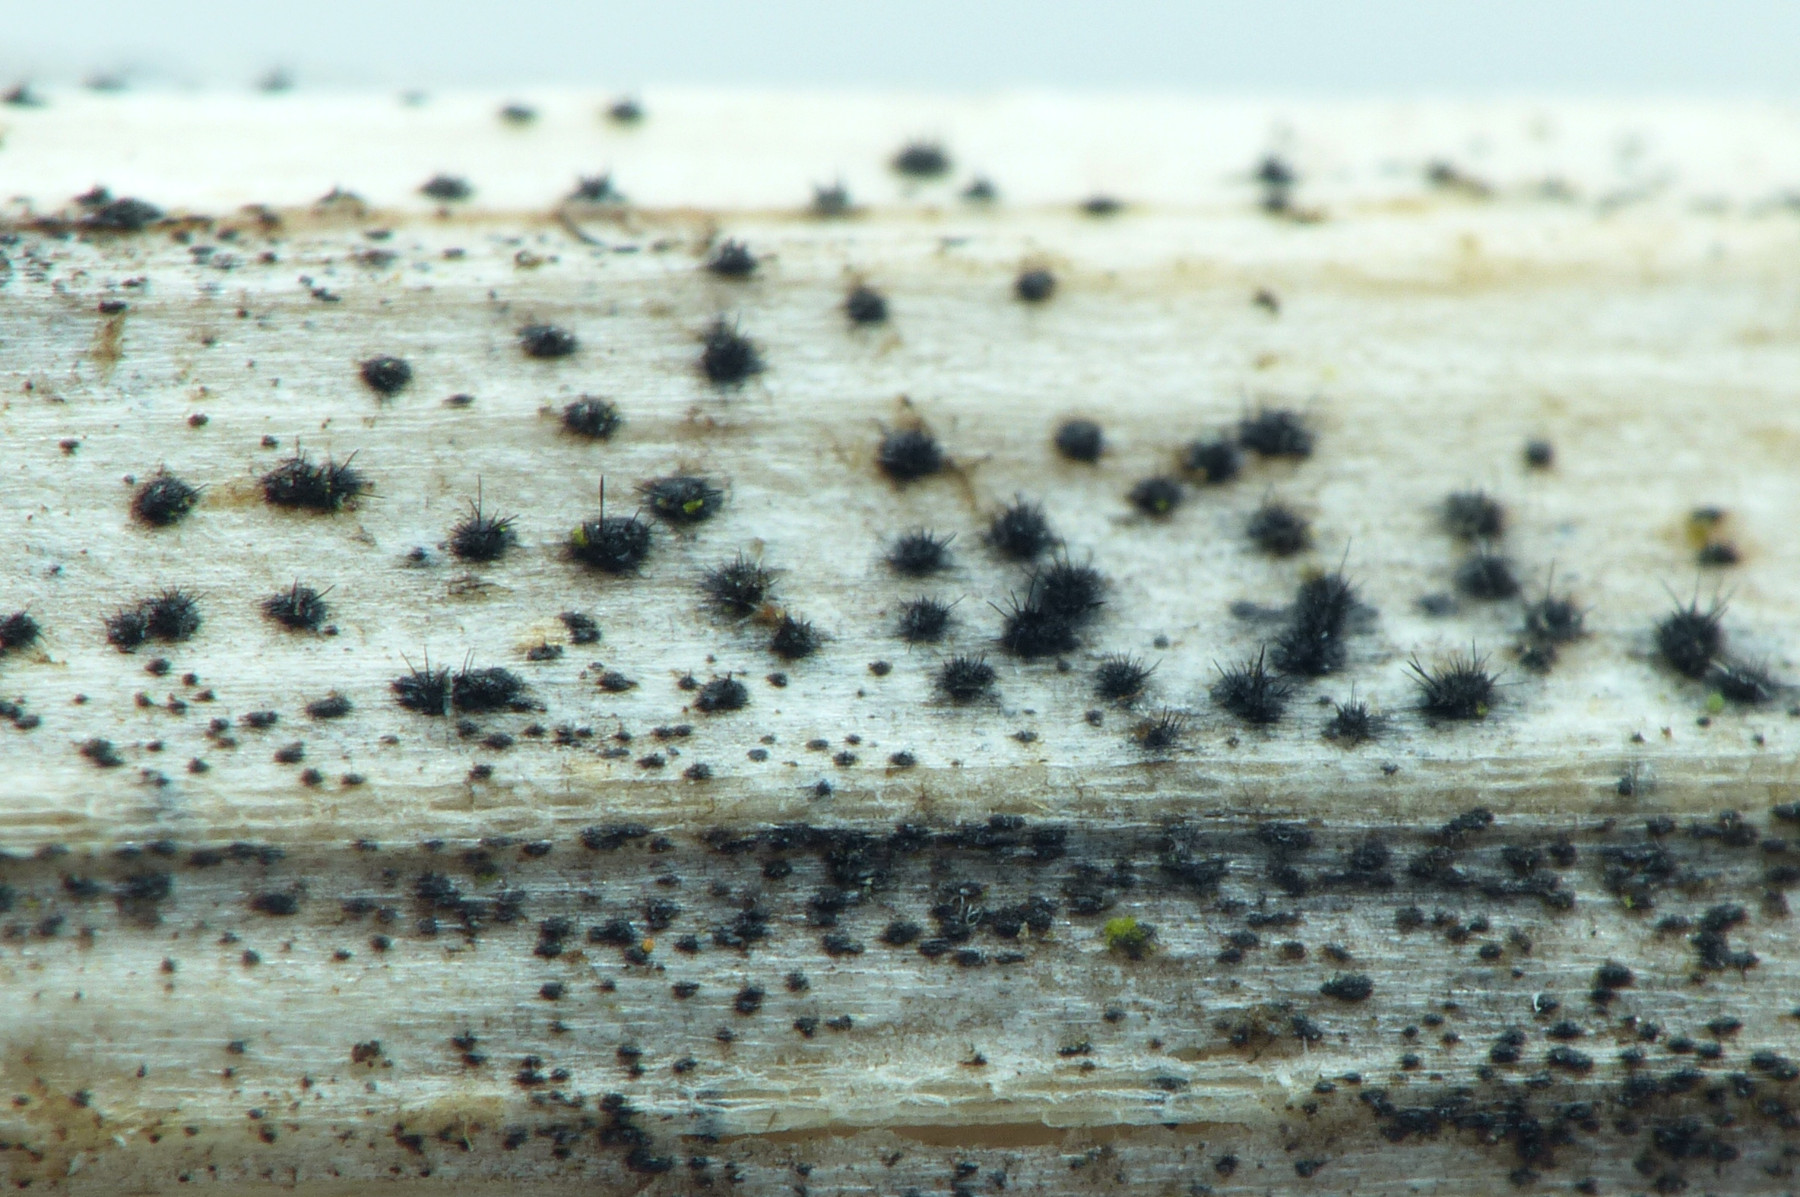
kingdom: Fungi
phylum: Ascomycota
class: Sordariomycetes
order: Glomerellales
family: Glomerellaceae
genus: Colletotrichum
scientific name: Colletotrichum dematium
